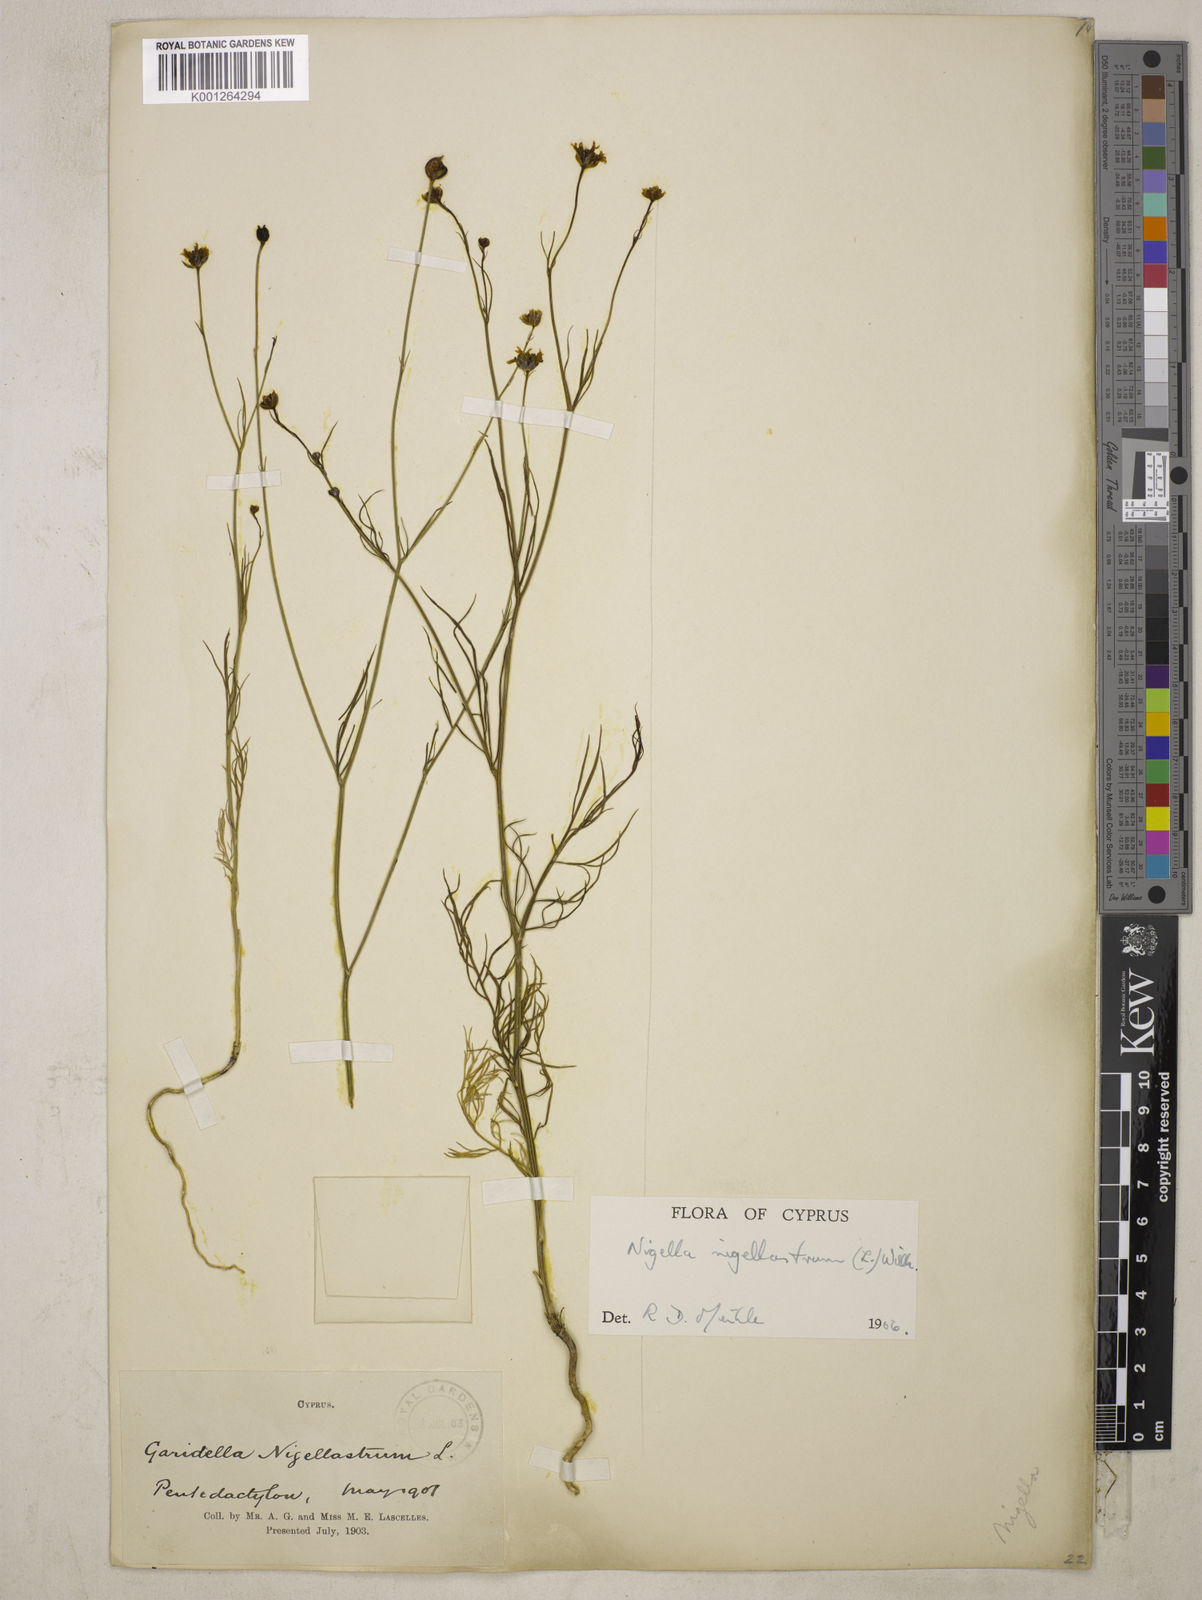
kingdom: Plantae
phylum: Tracheophyta
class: Magnoliopsida
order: Ranunculales
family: Ranunculaceae
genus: Garidella
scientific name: Garidella nigellastrum
